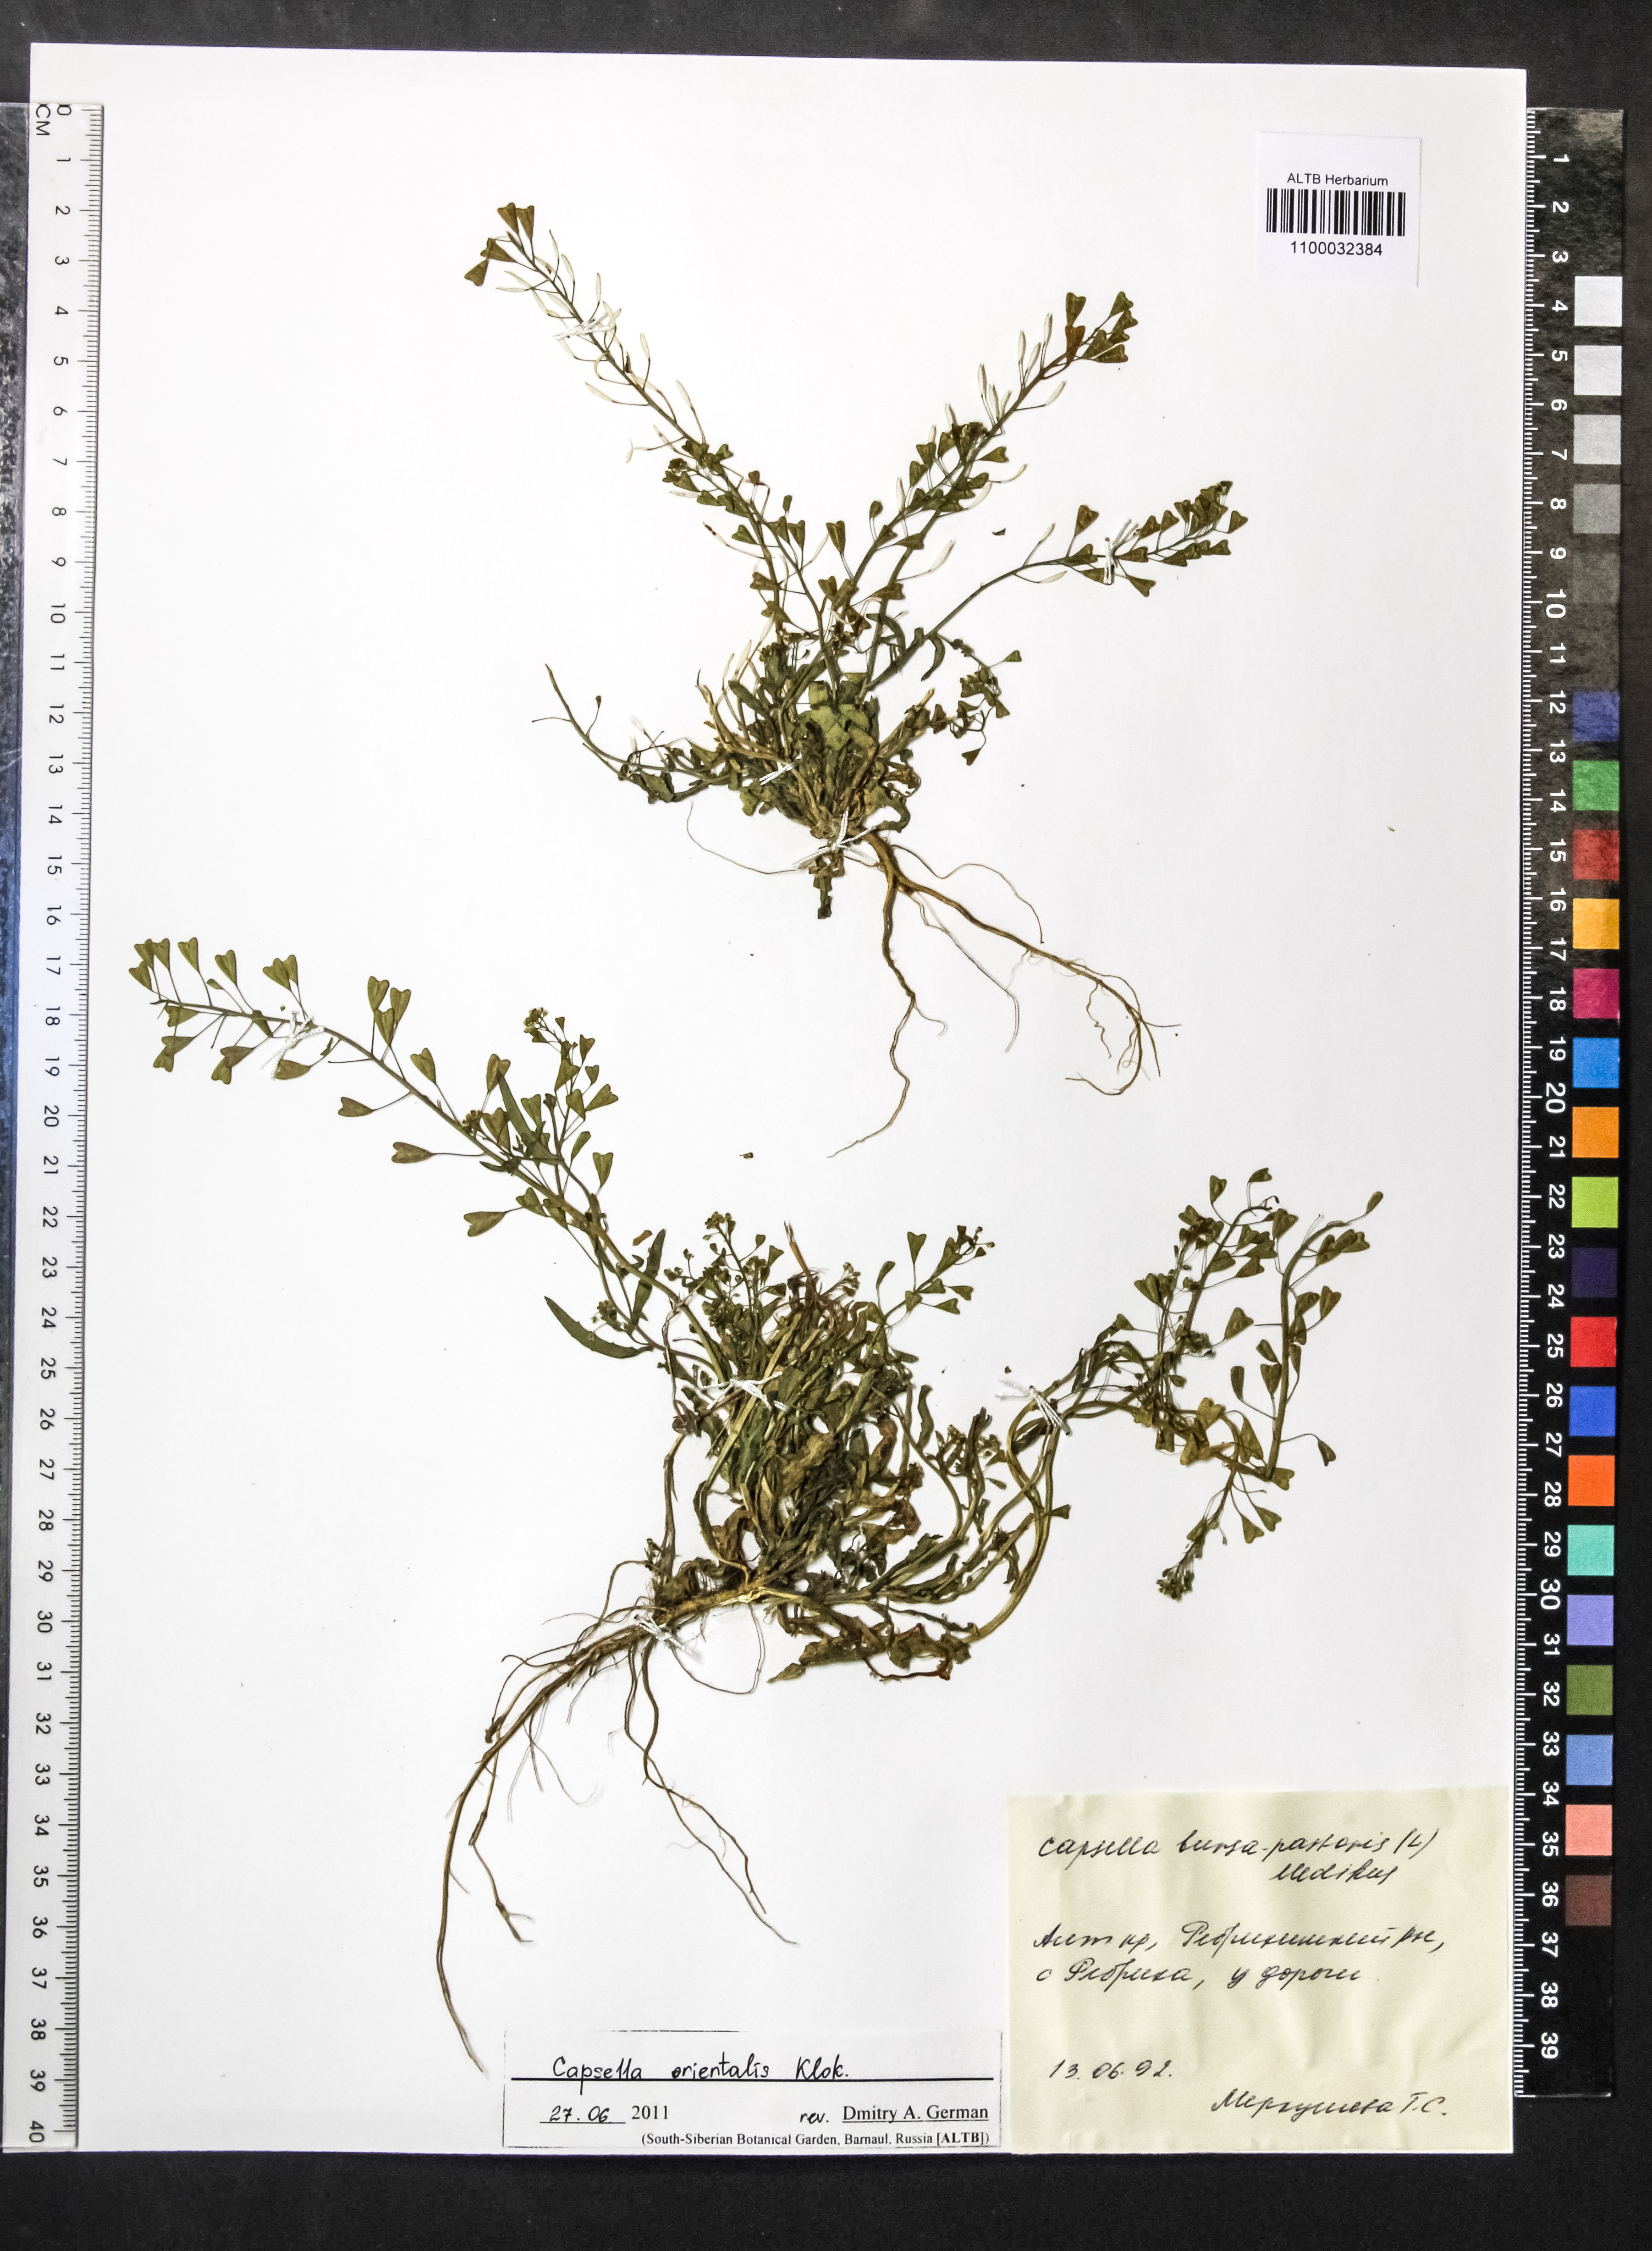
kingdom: Plantae
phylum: Tracheophyta
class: Magnoliopsida
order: Brassicales
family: Brassicaceae
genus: Capsella
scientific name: Capsella orientalis
